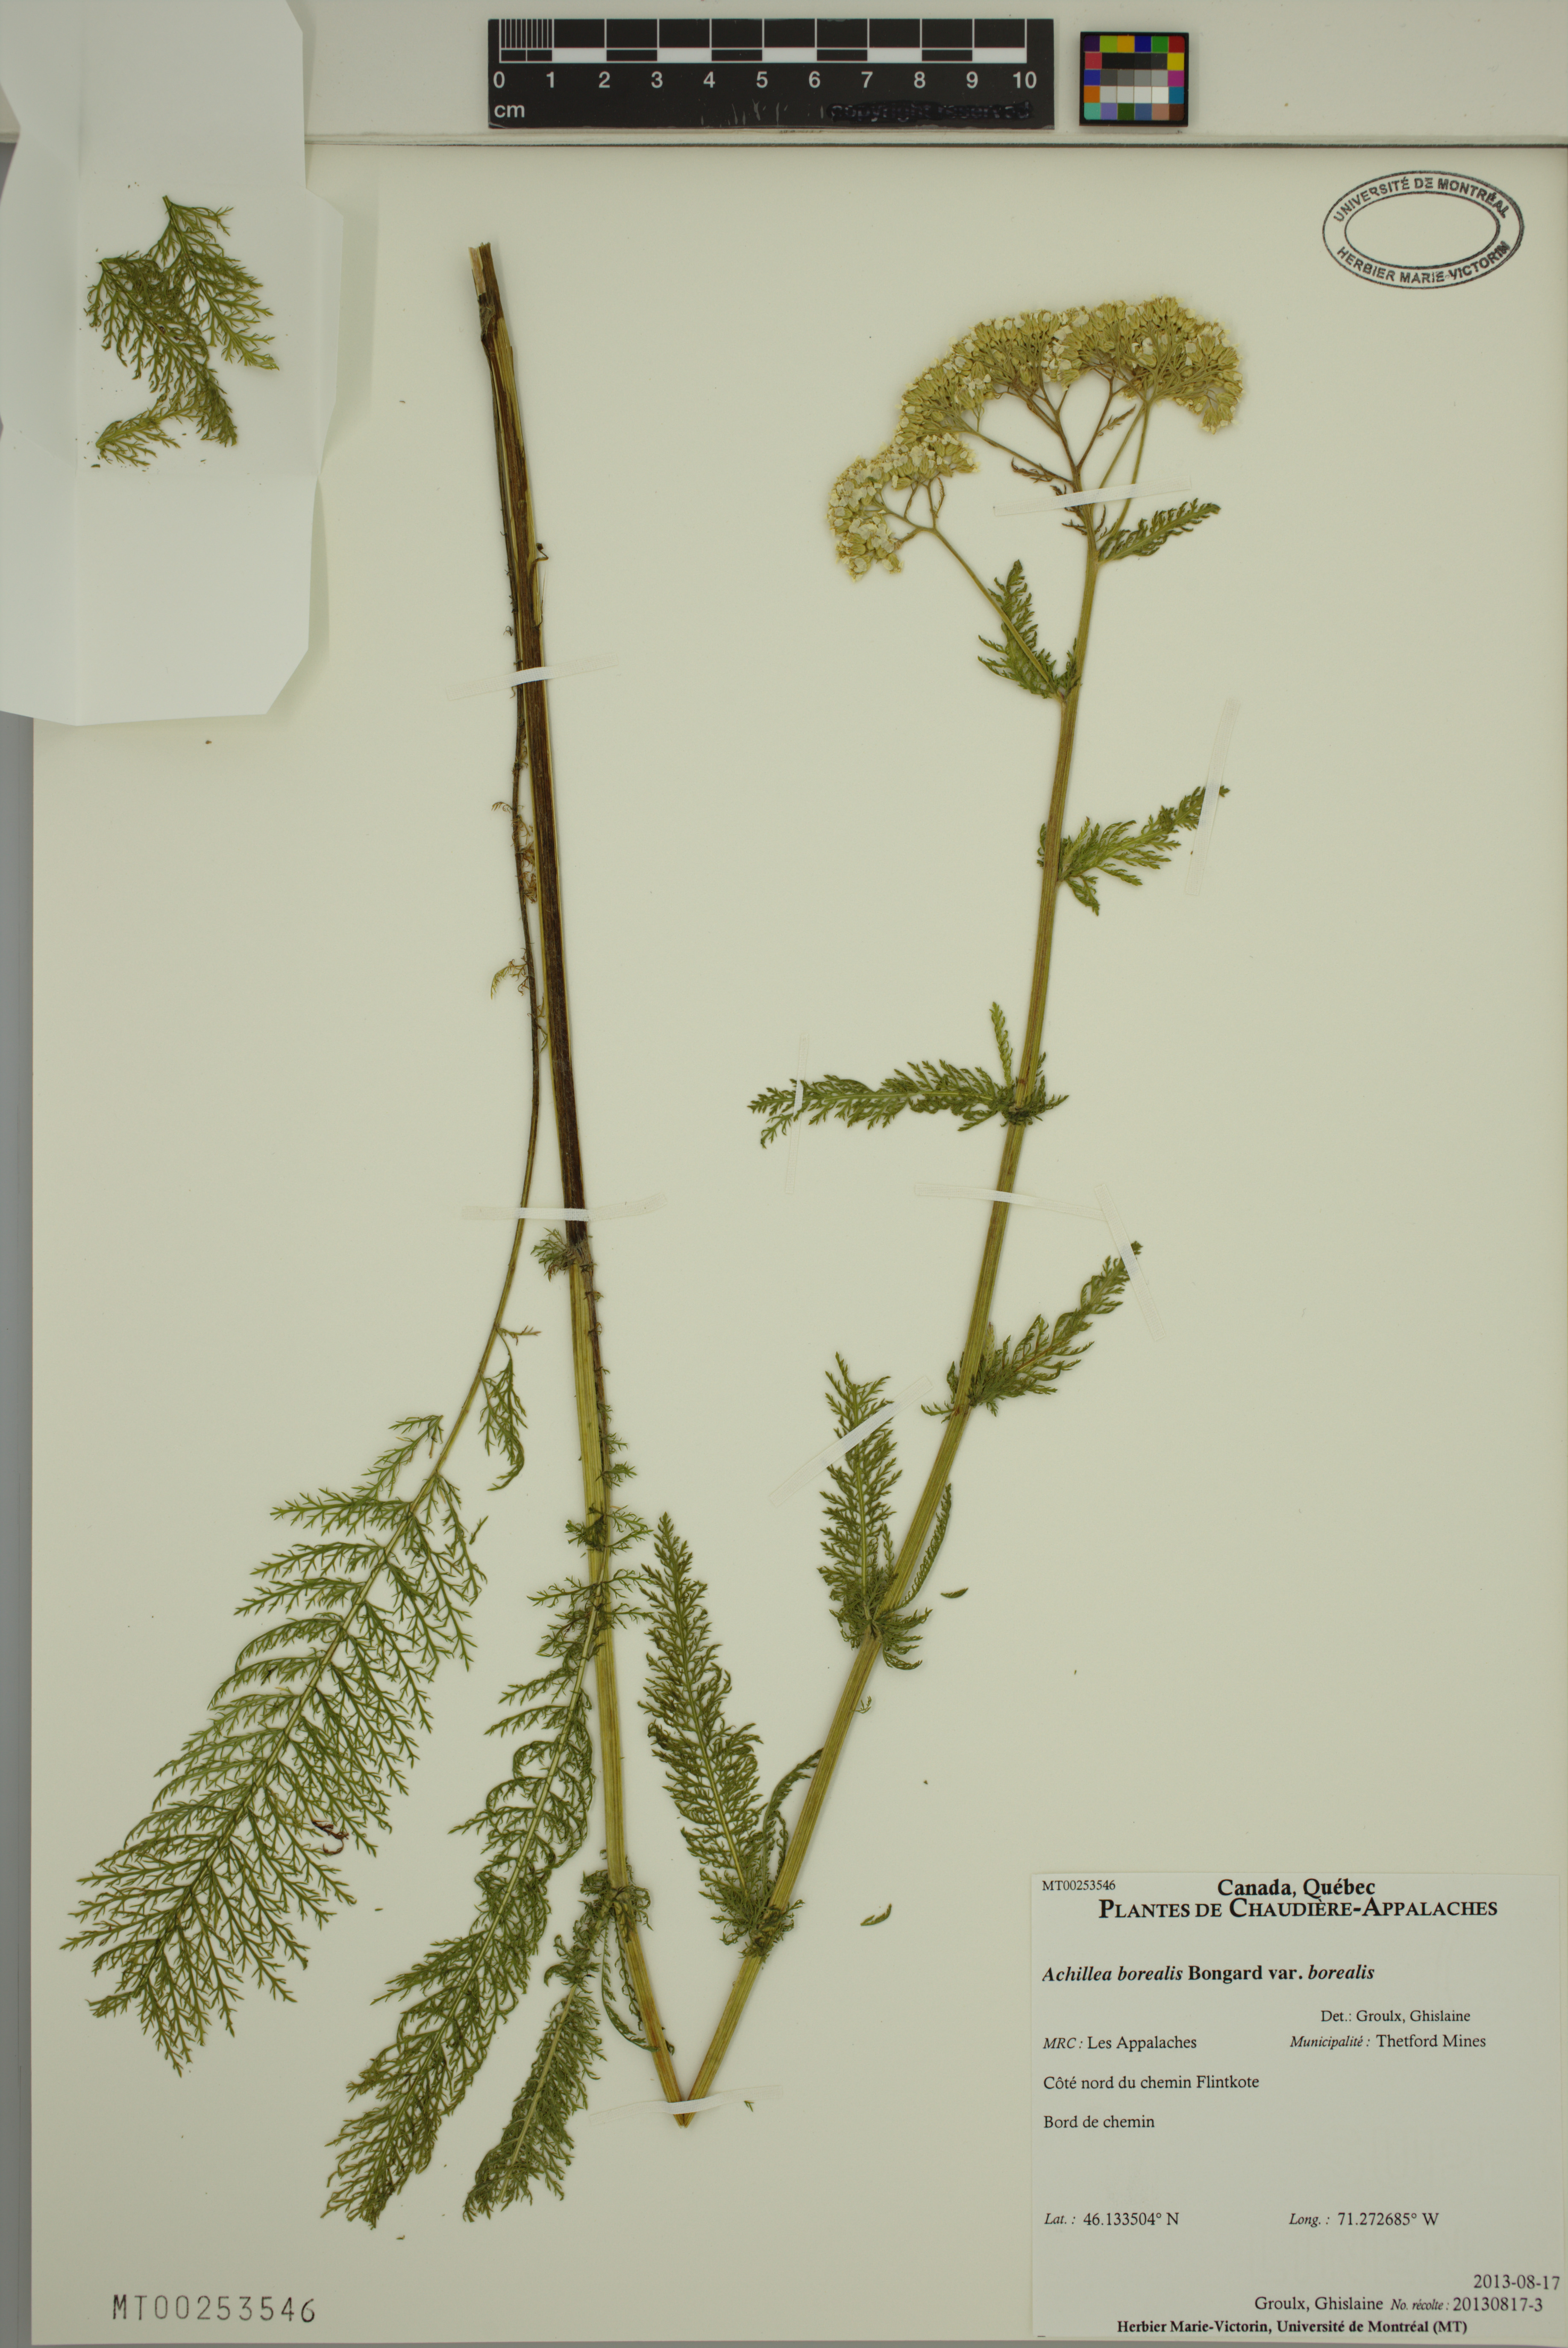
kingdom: Plantae
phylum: Tracheophyta
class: Magnoliopsida
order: Asterales
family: Asteraceae
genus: Achillea
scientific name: Achillea millefolium
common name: Yarrow
